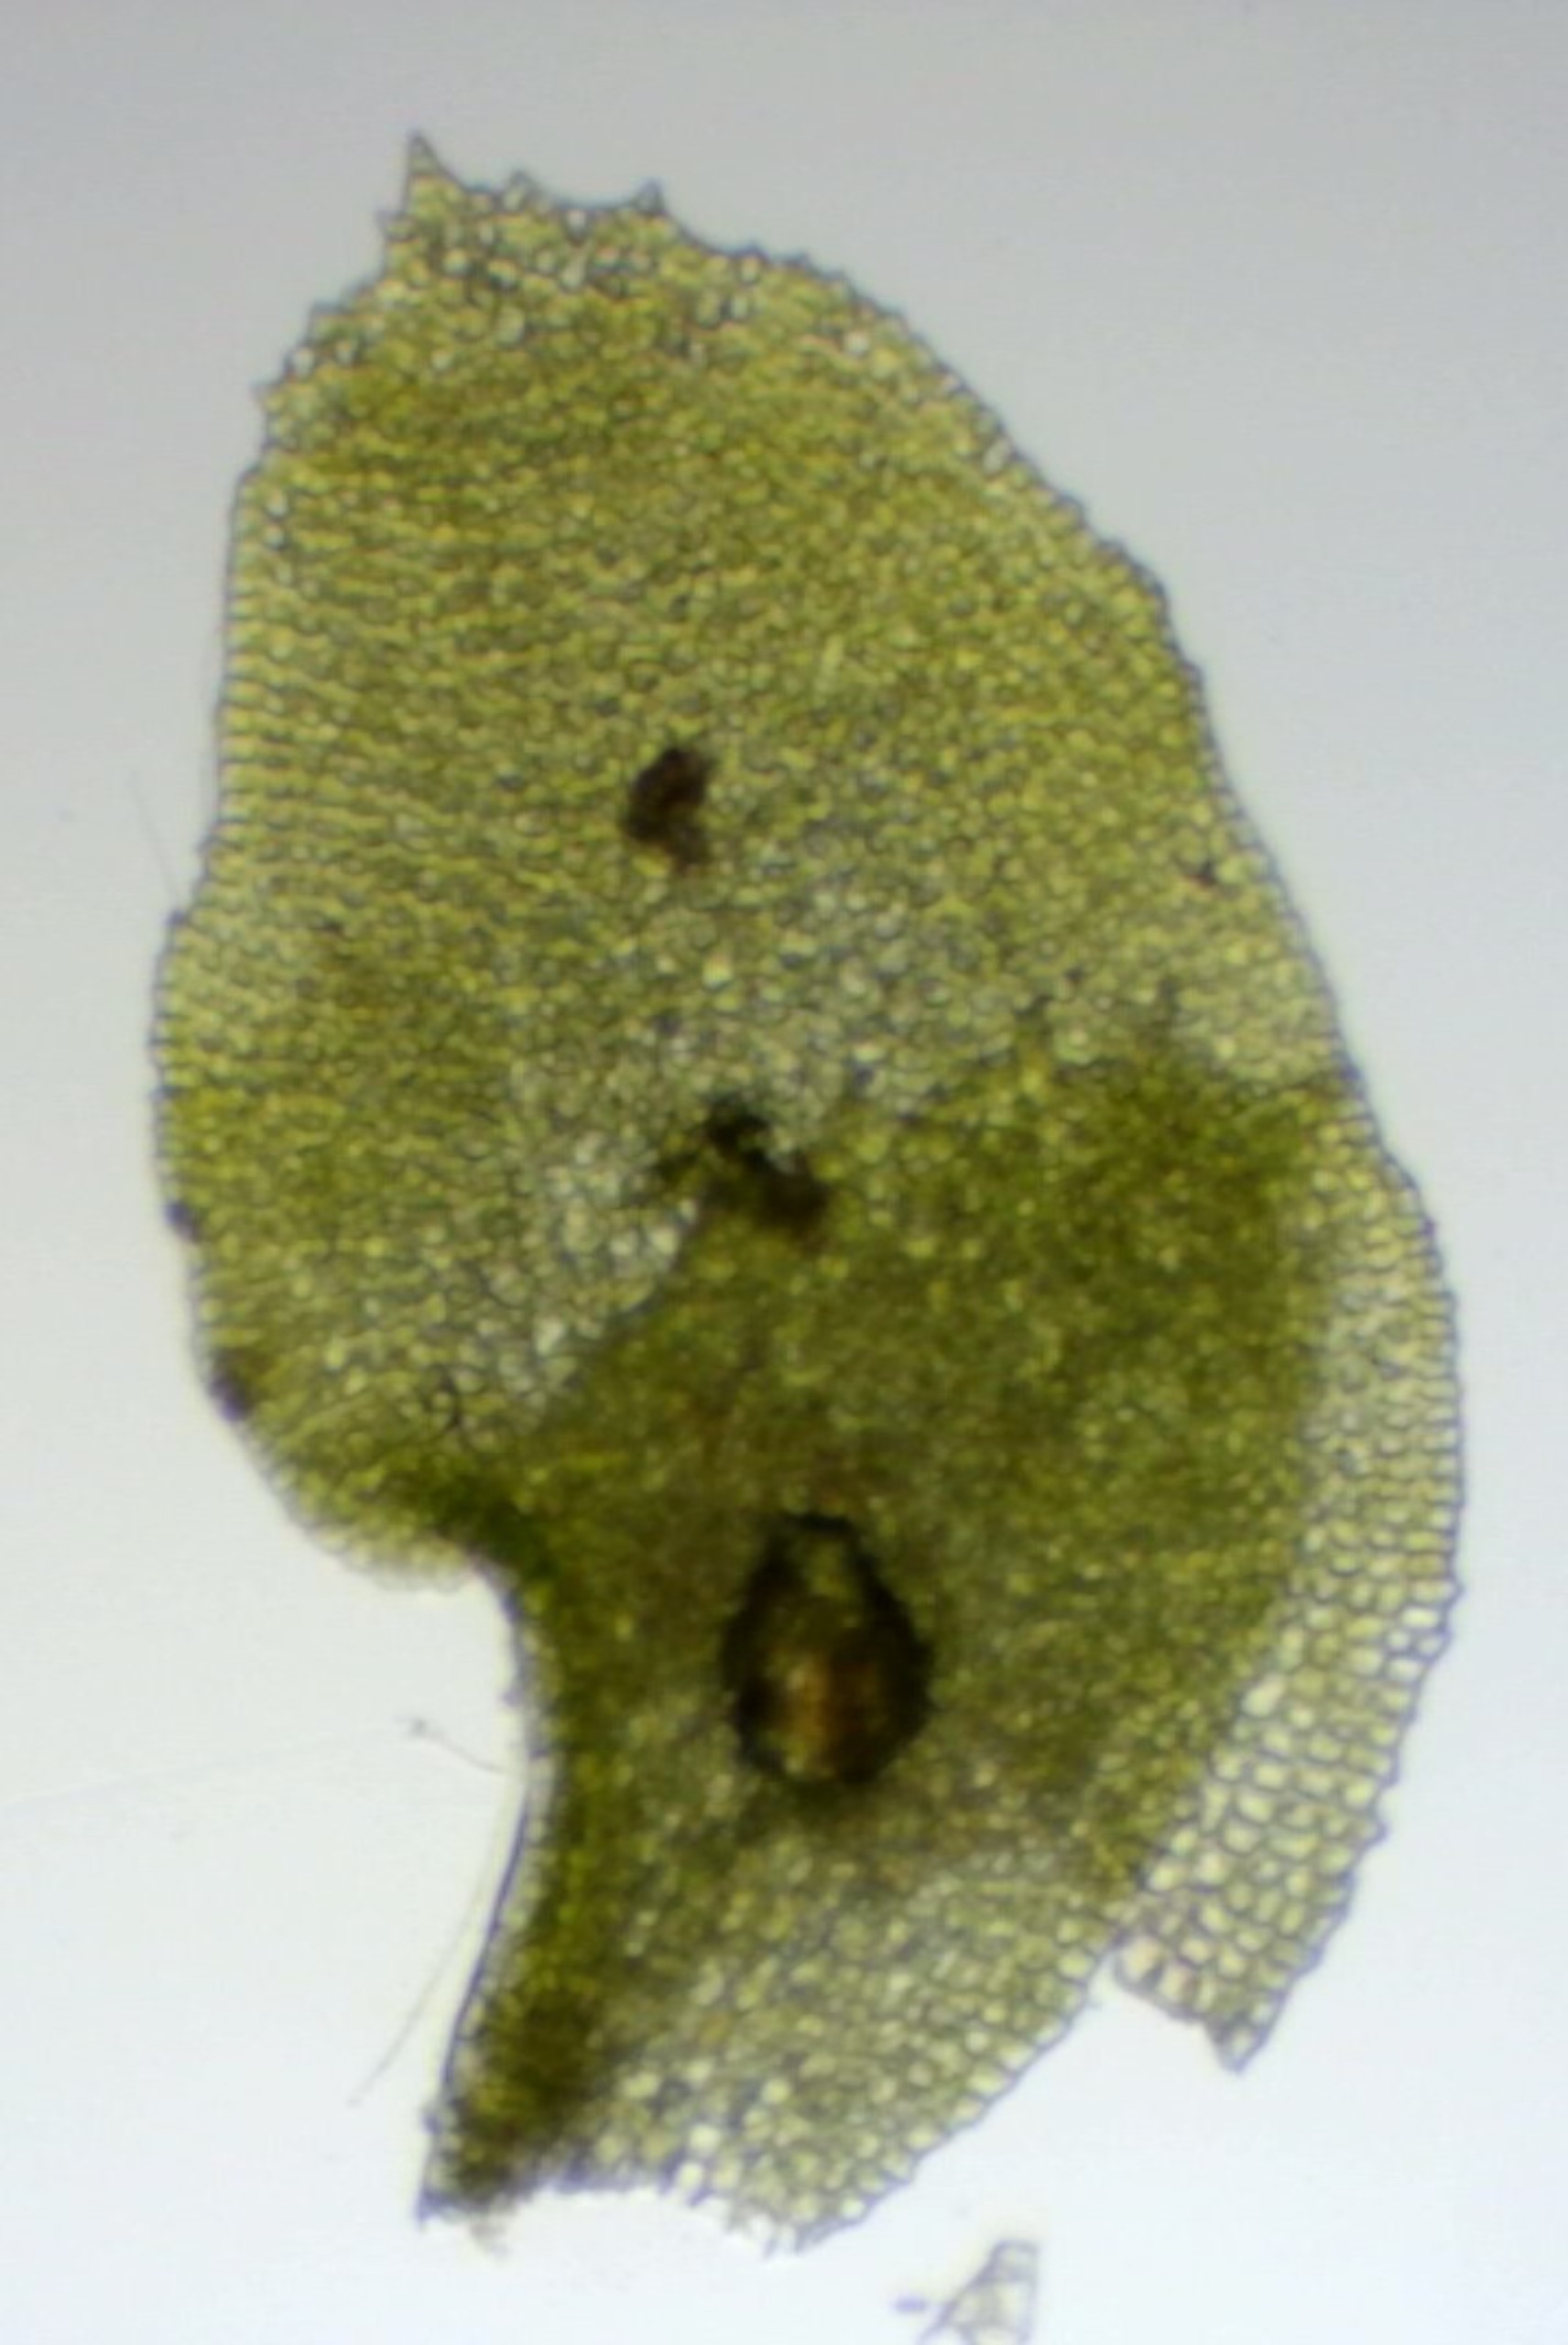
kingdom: Plantae
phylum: Marchantiophyta
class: Jungermanniopsida
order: Jungermanniales
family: Scapaniaceae
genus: Diplophyllum
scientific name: Diplophyllum obtusifolium
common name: But dobbeltblad
